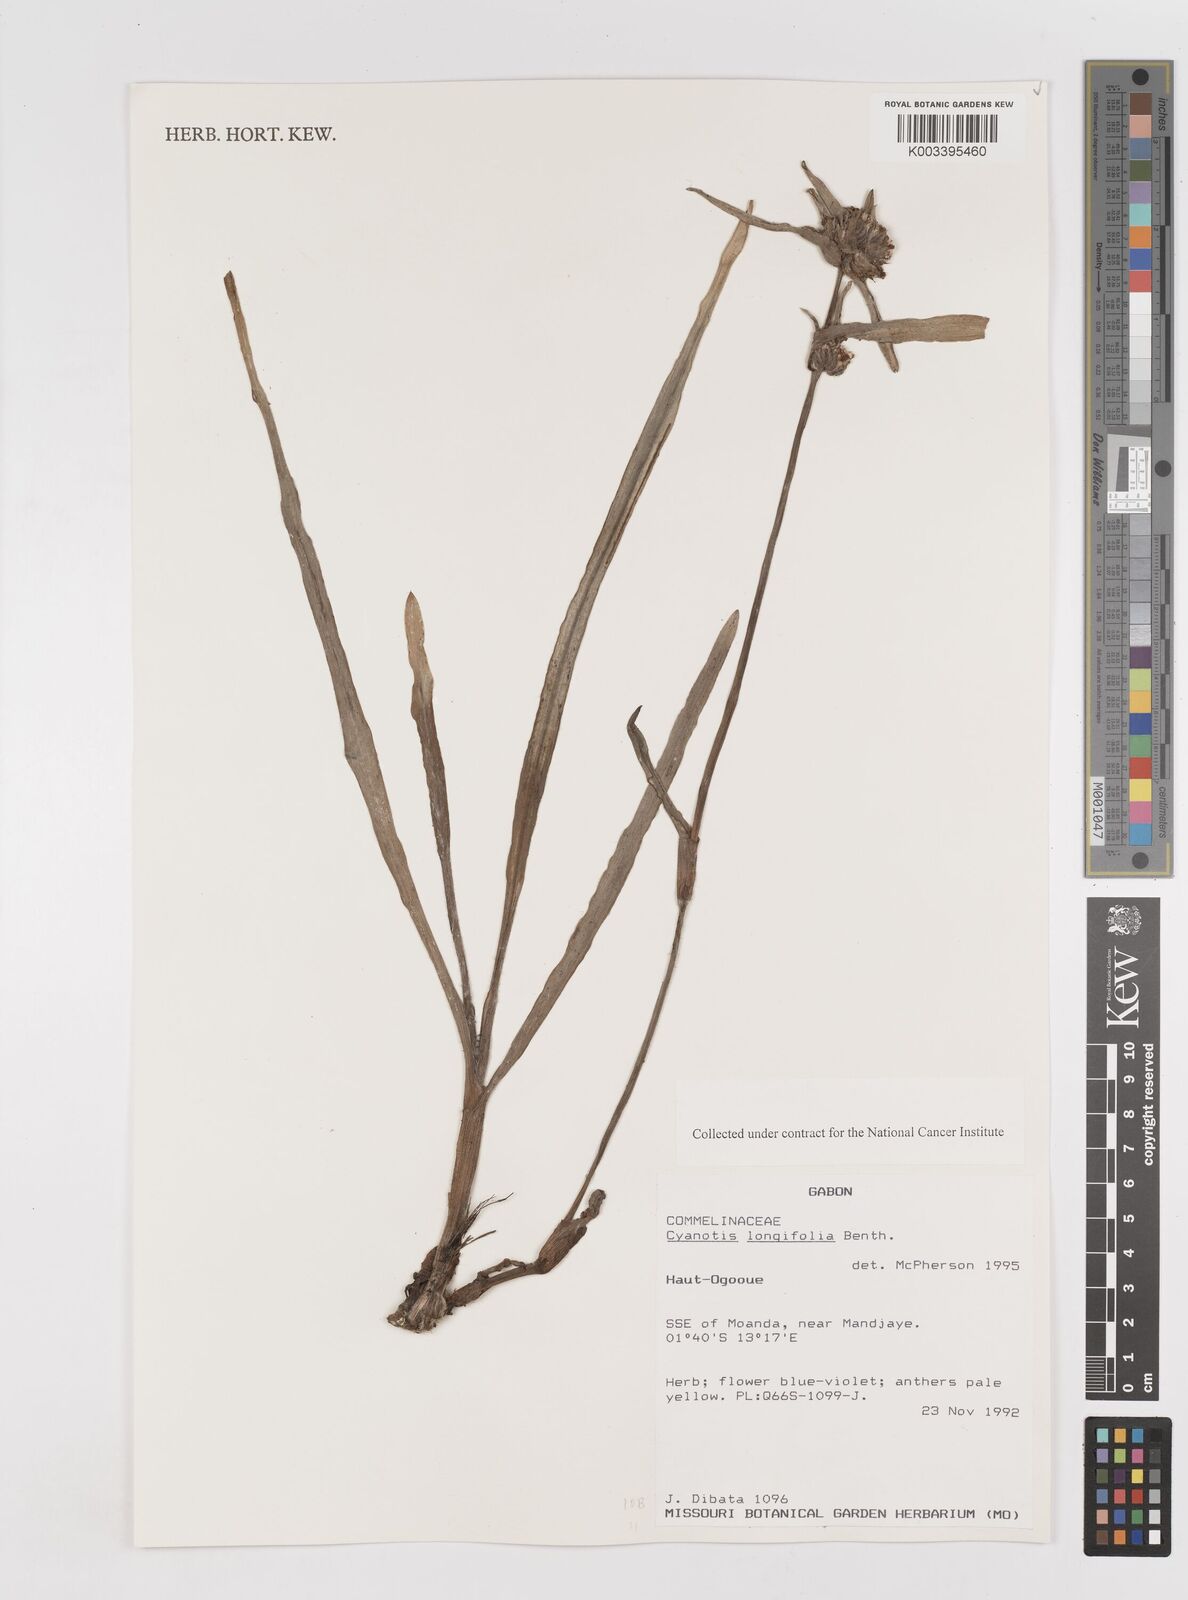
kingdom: Plantae
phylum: Tracheophyta
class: Liliopsida
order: Commelinales
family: Commelinaceae
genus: Cyanotis
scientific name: Cyanotis longifolia
